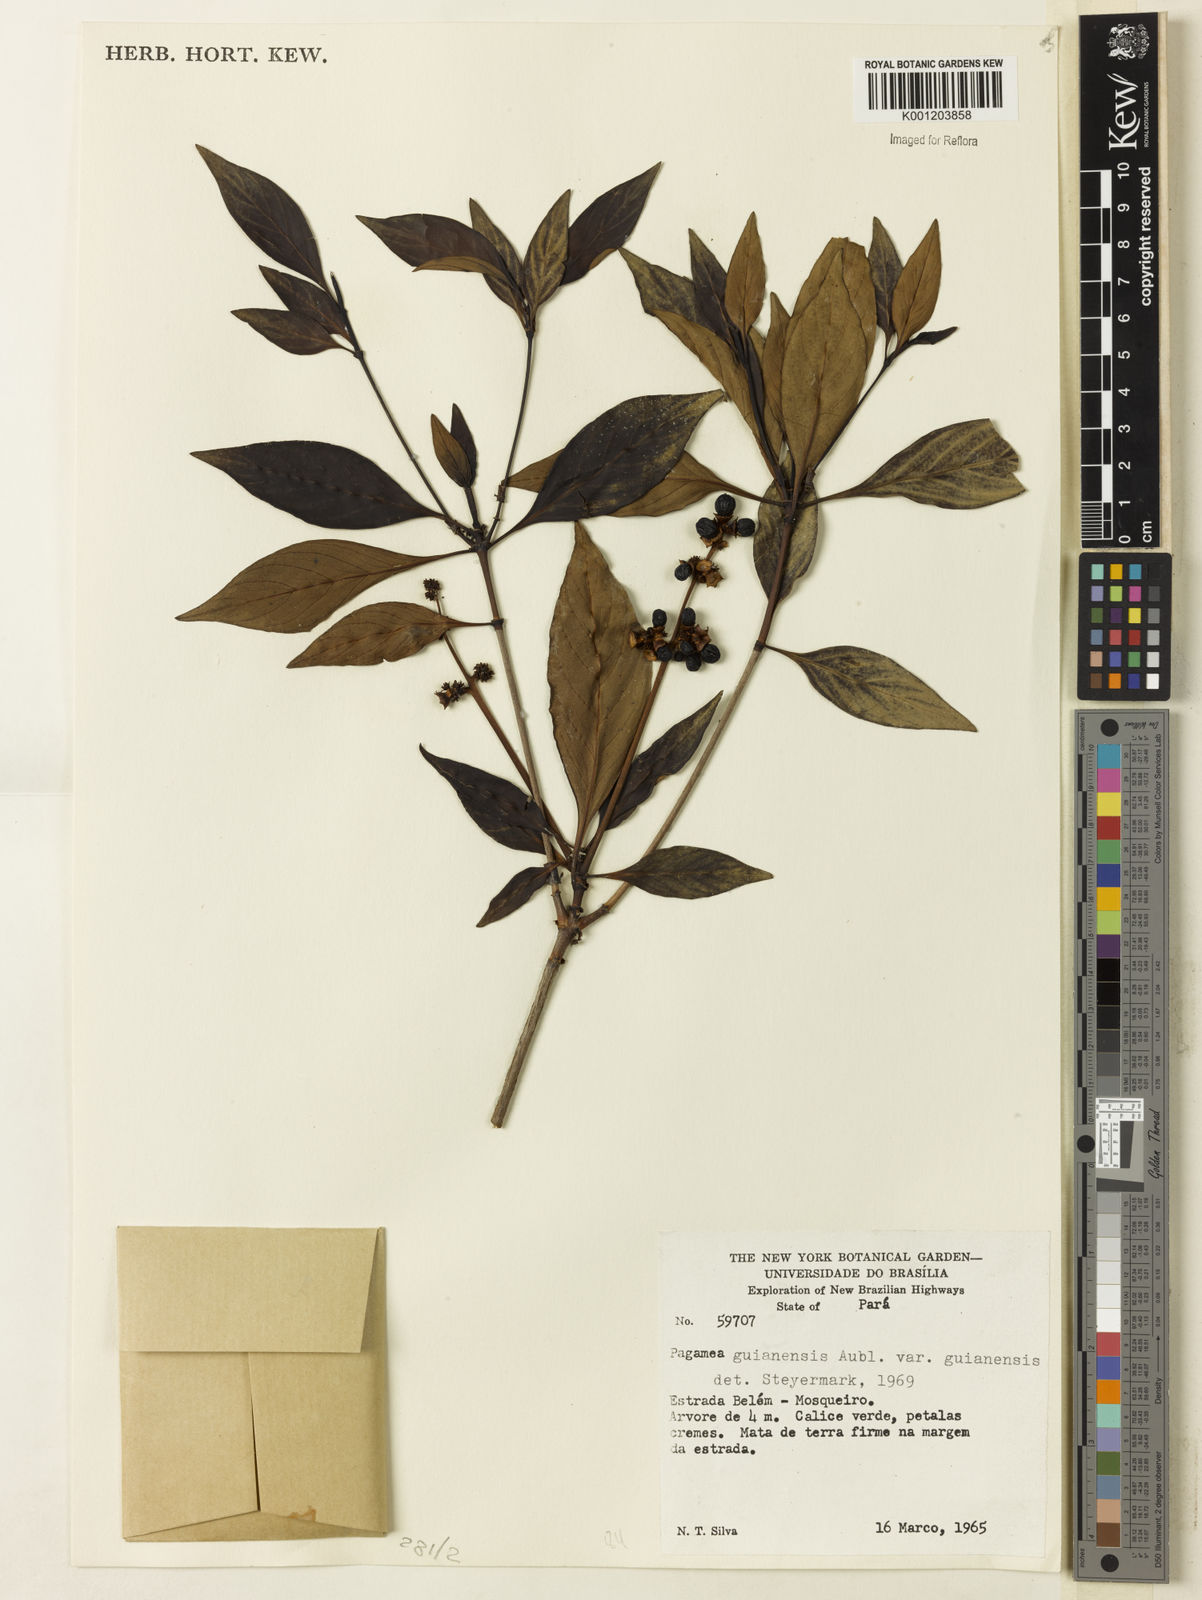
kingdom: Plantae
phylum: Tracheophyta
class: Magnoliopsida
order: Gentianales
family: Rubiaceae
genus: Pagamea
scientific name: Pagamea guianensis
